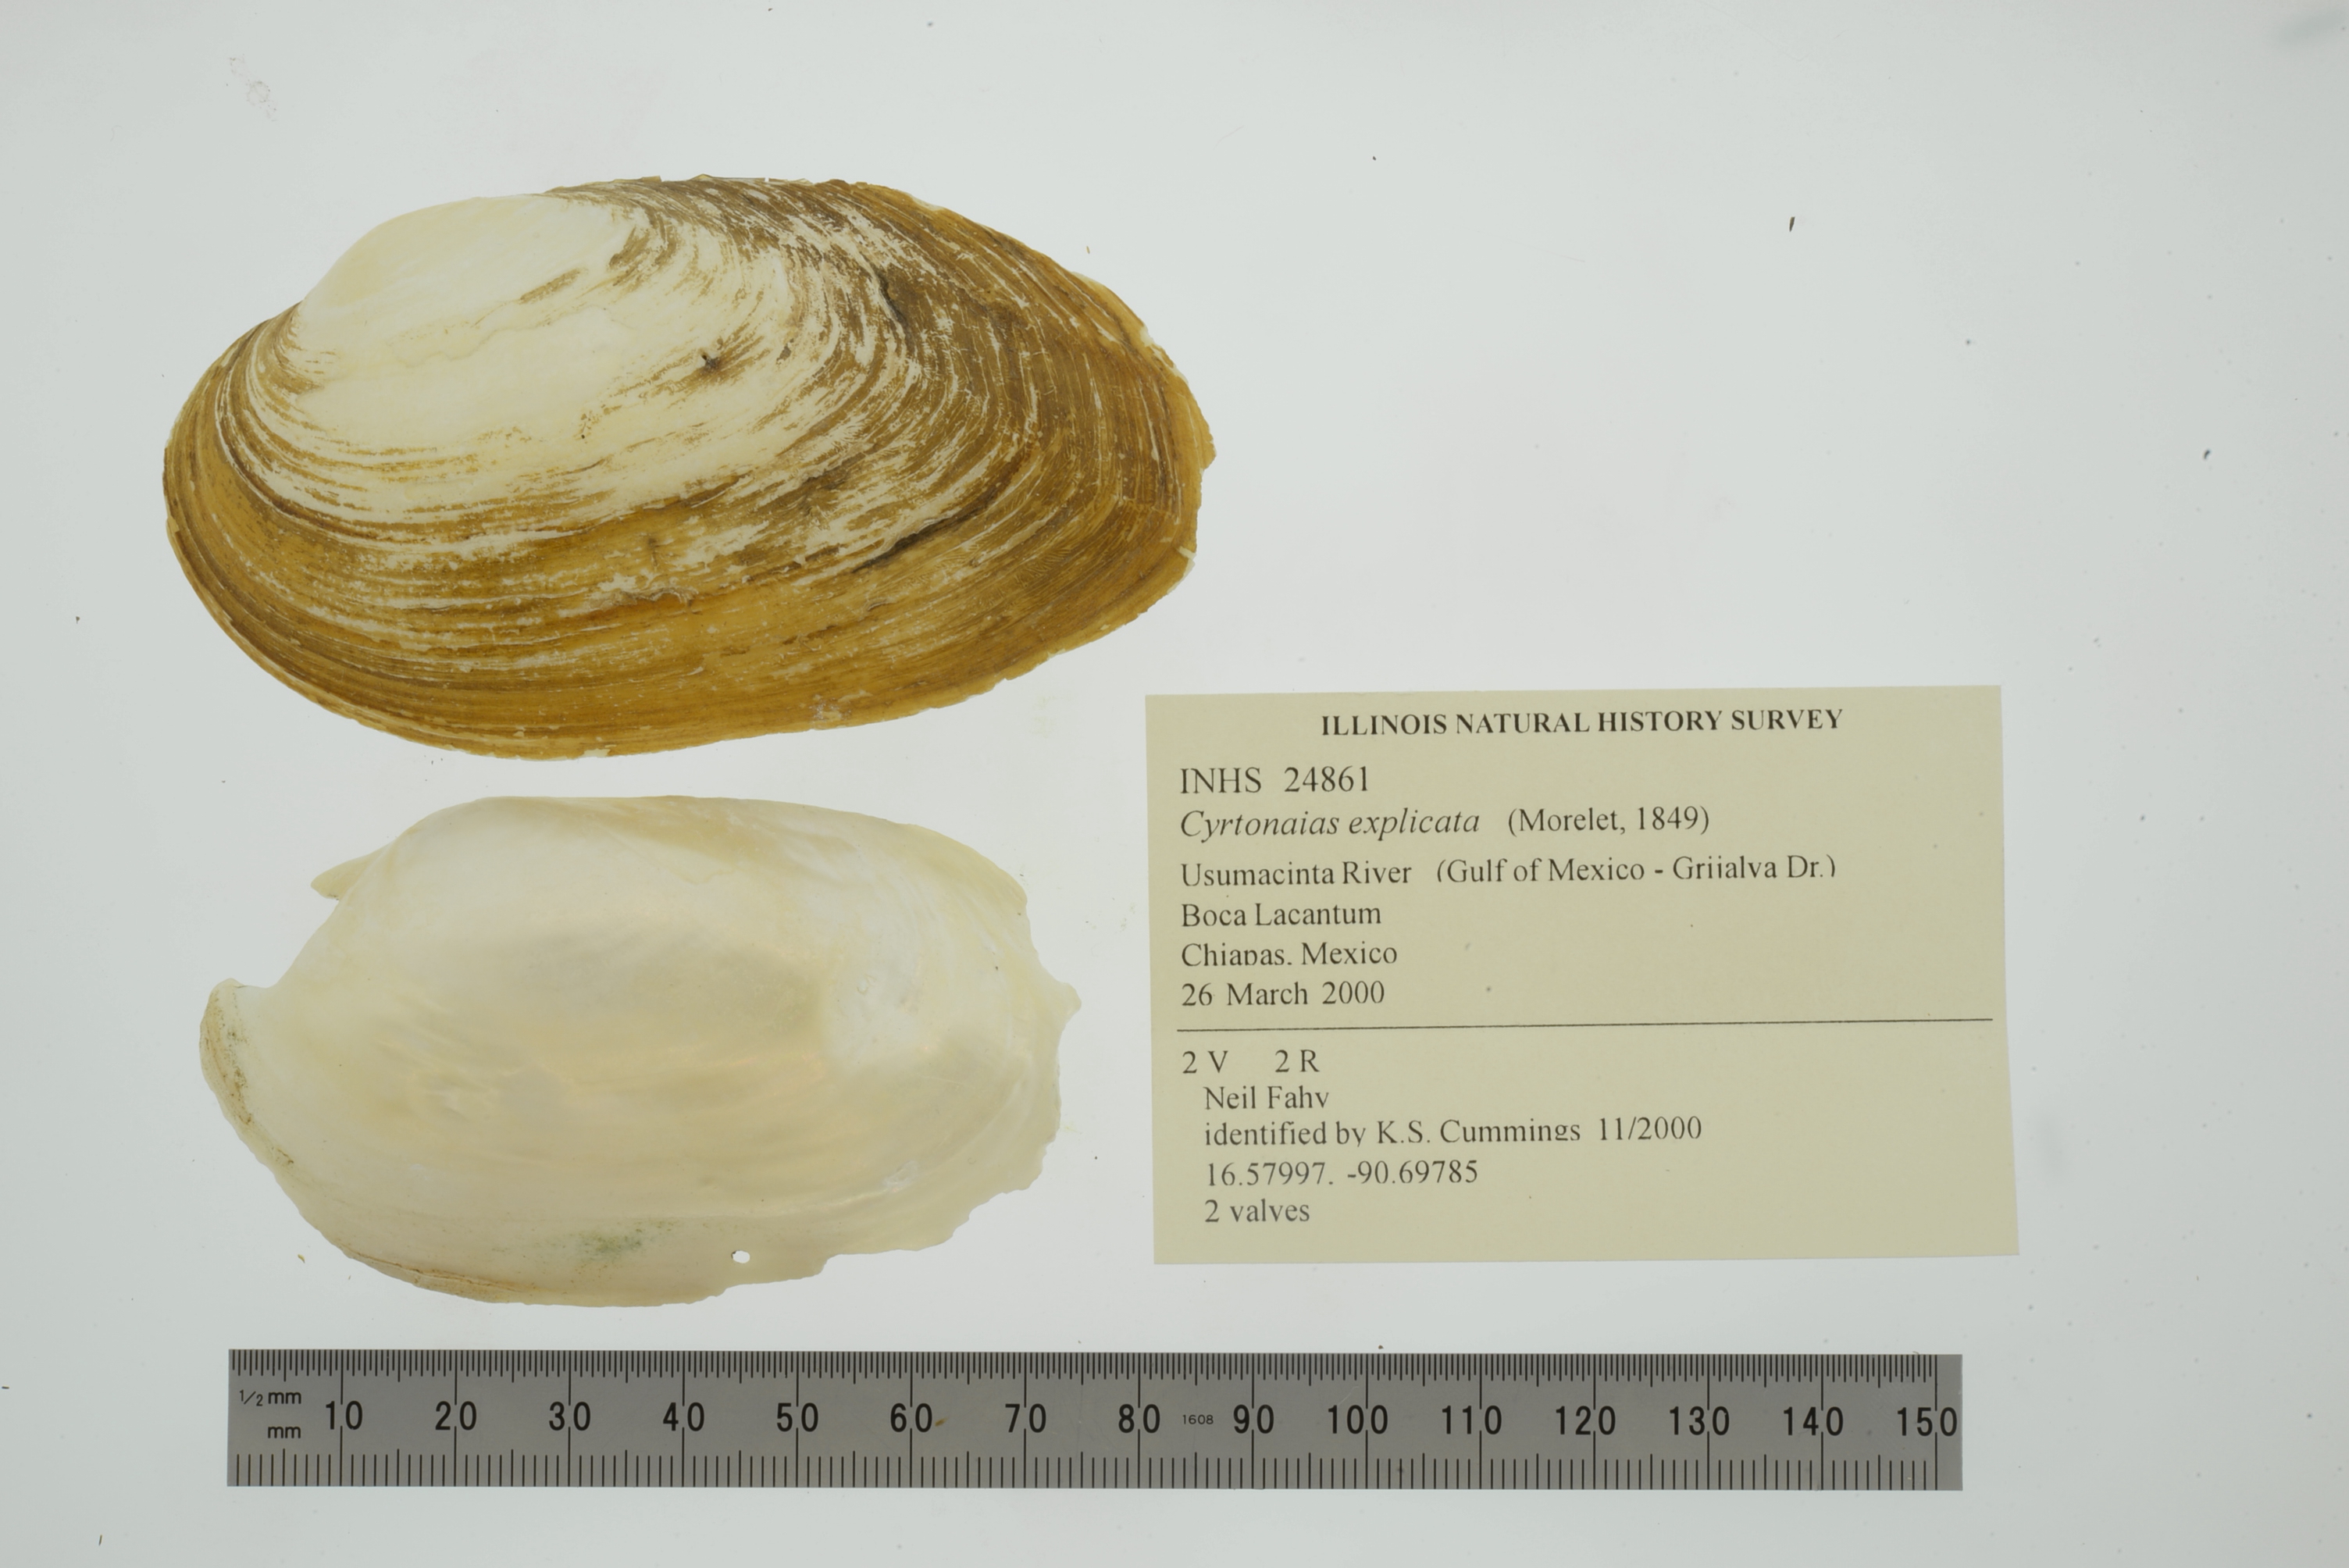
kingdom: Animalia
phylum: Mollusca
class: Bivalvia
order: Unionida
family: Unionidae
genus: Cyrtonaias
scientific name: Cyrtonaias explicata
